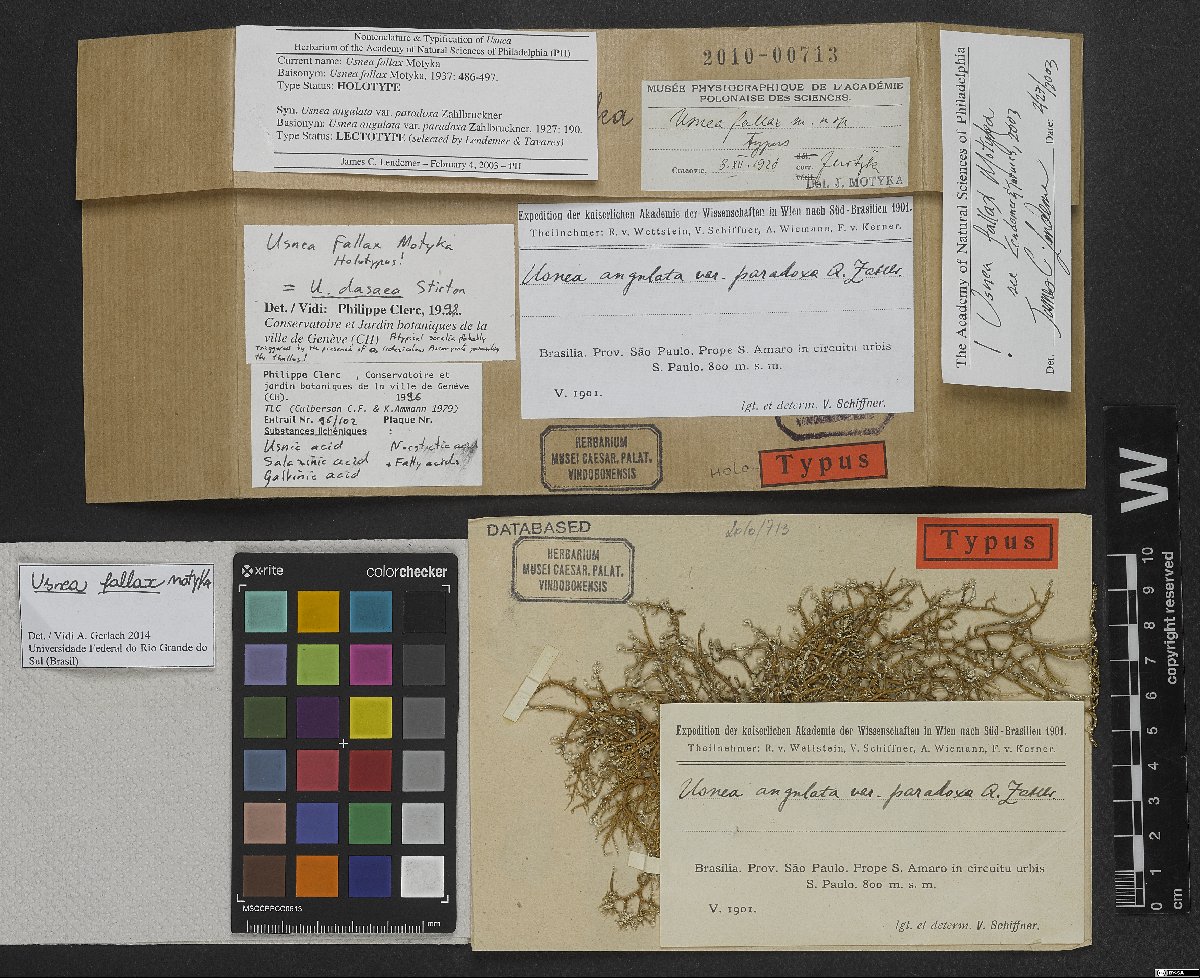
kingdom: Fungi
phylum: Ascomycota
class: Lecanoromycetes
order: Lecanorales
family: Parmeliaceae
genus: Usnea
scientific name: Usnea
